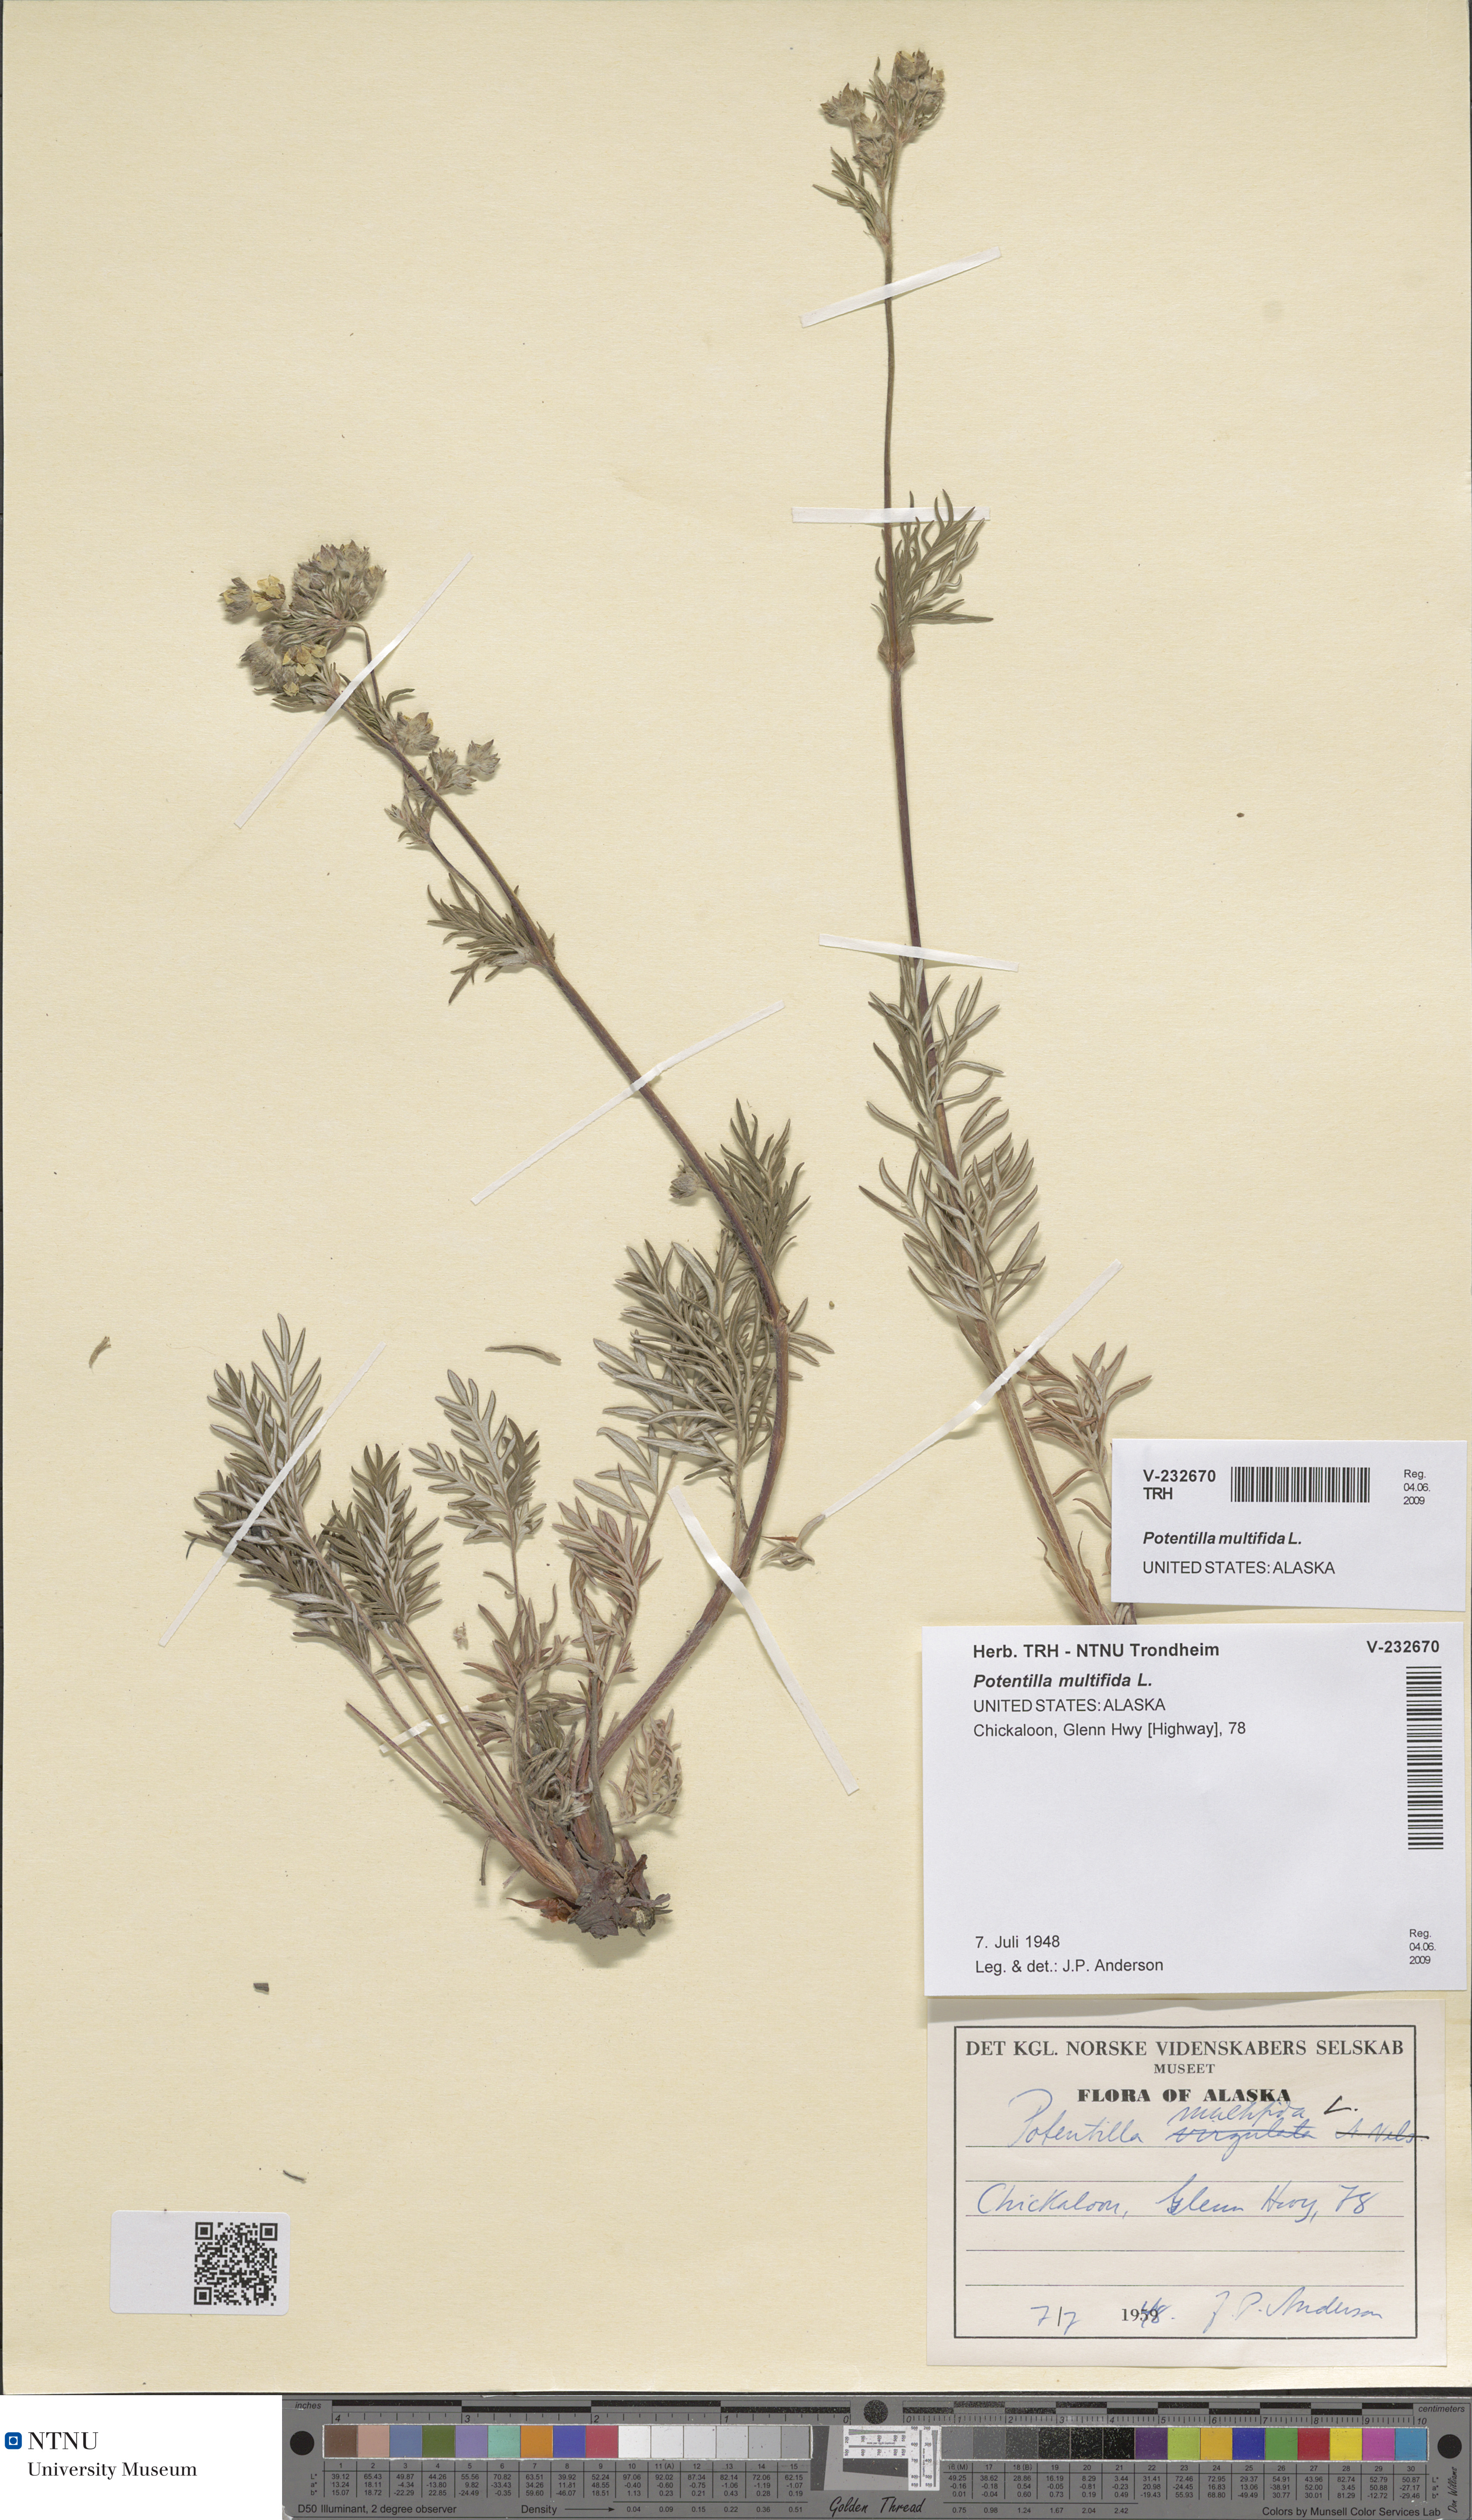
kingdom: Plantae
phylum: Tracheophyta
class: Magnoliopsida
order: Rosales
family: Rosaceae
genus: Potentilla
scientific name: Potentilla multifida
